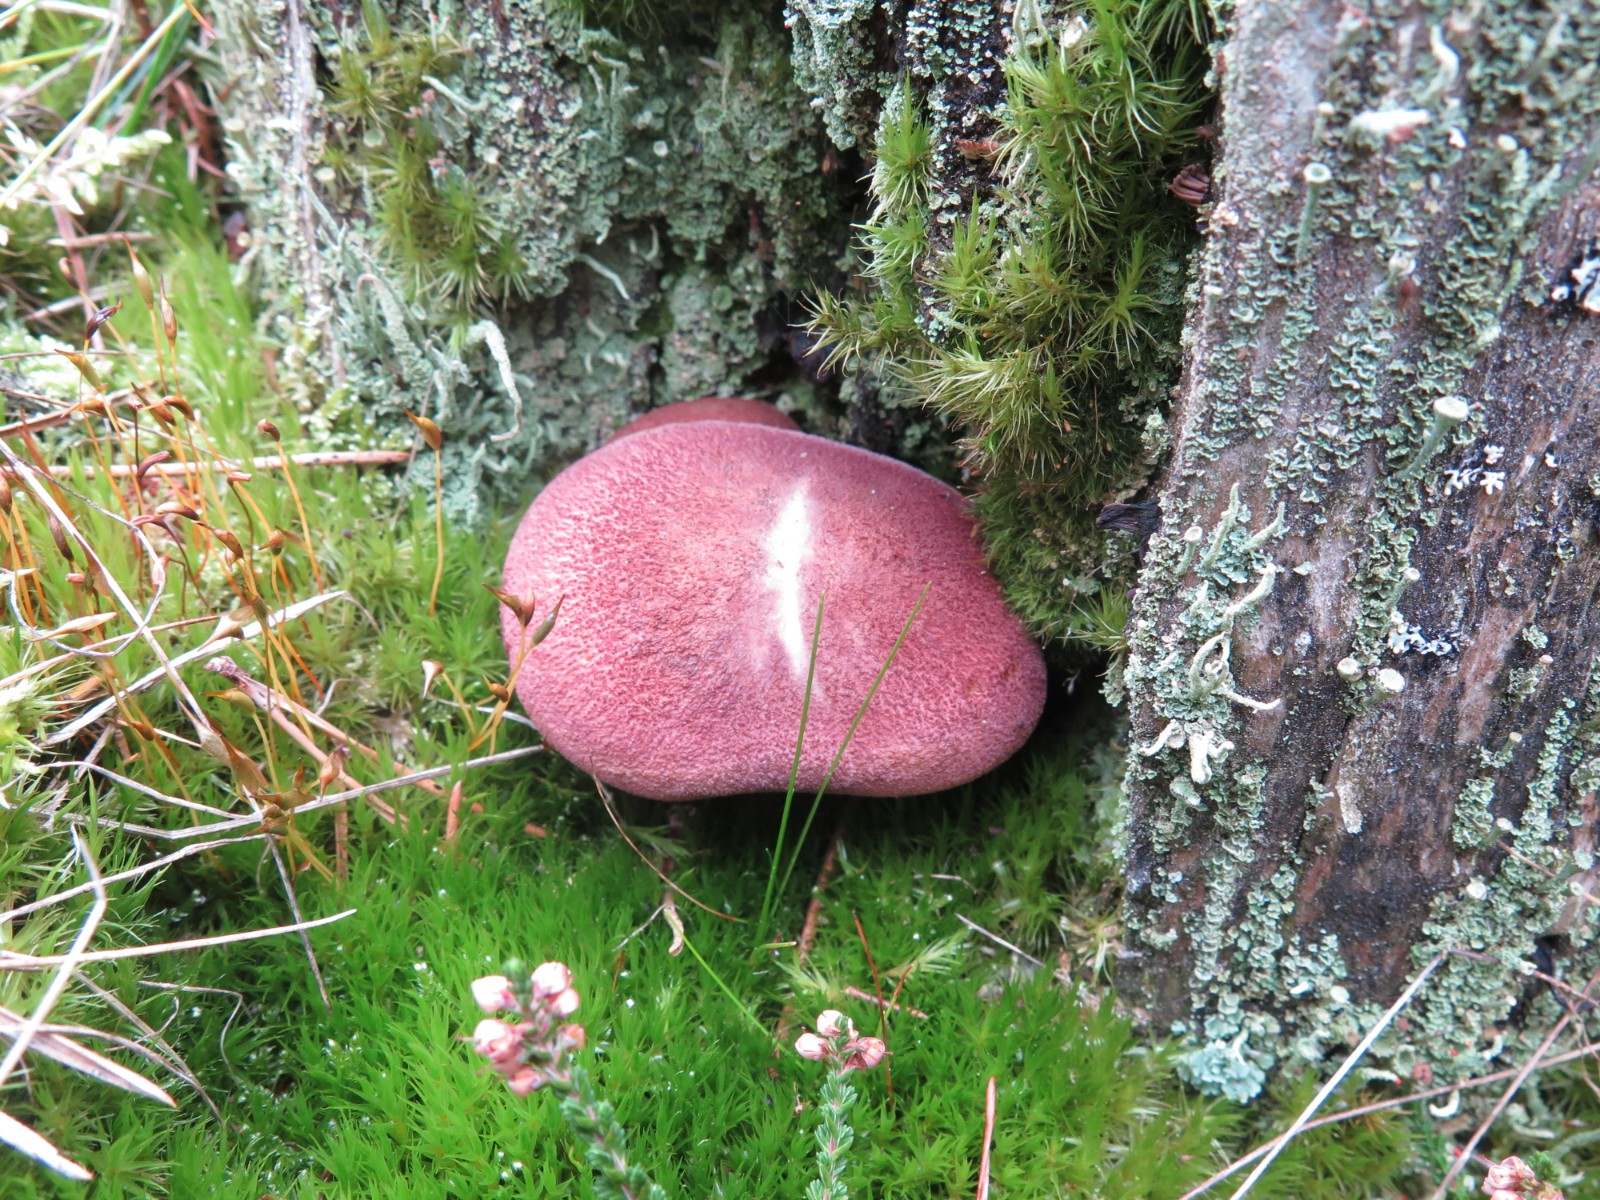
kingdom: Fungi
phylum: Basidiomycota
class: Agaricomycetes
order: Agaricales
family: Tricholomataceae
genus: Tricholomopsis
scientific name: Tricholomopsis rutilans
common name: purpur-væbnerhat
